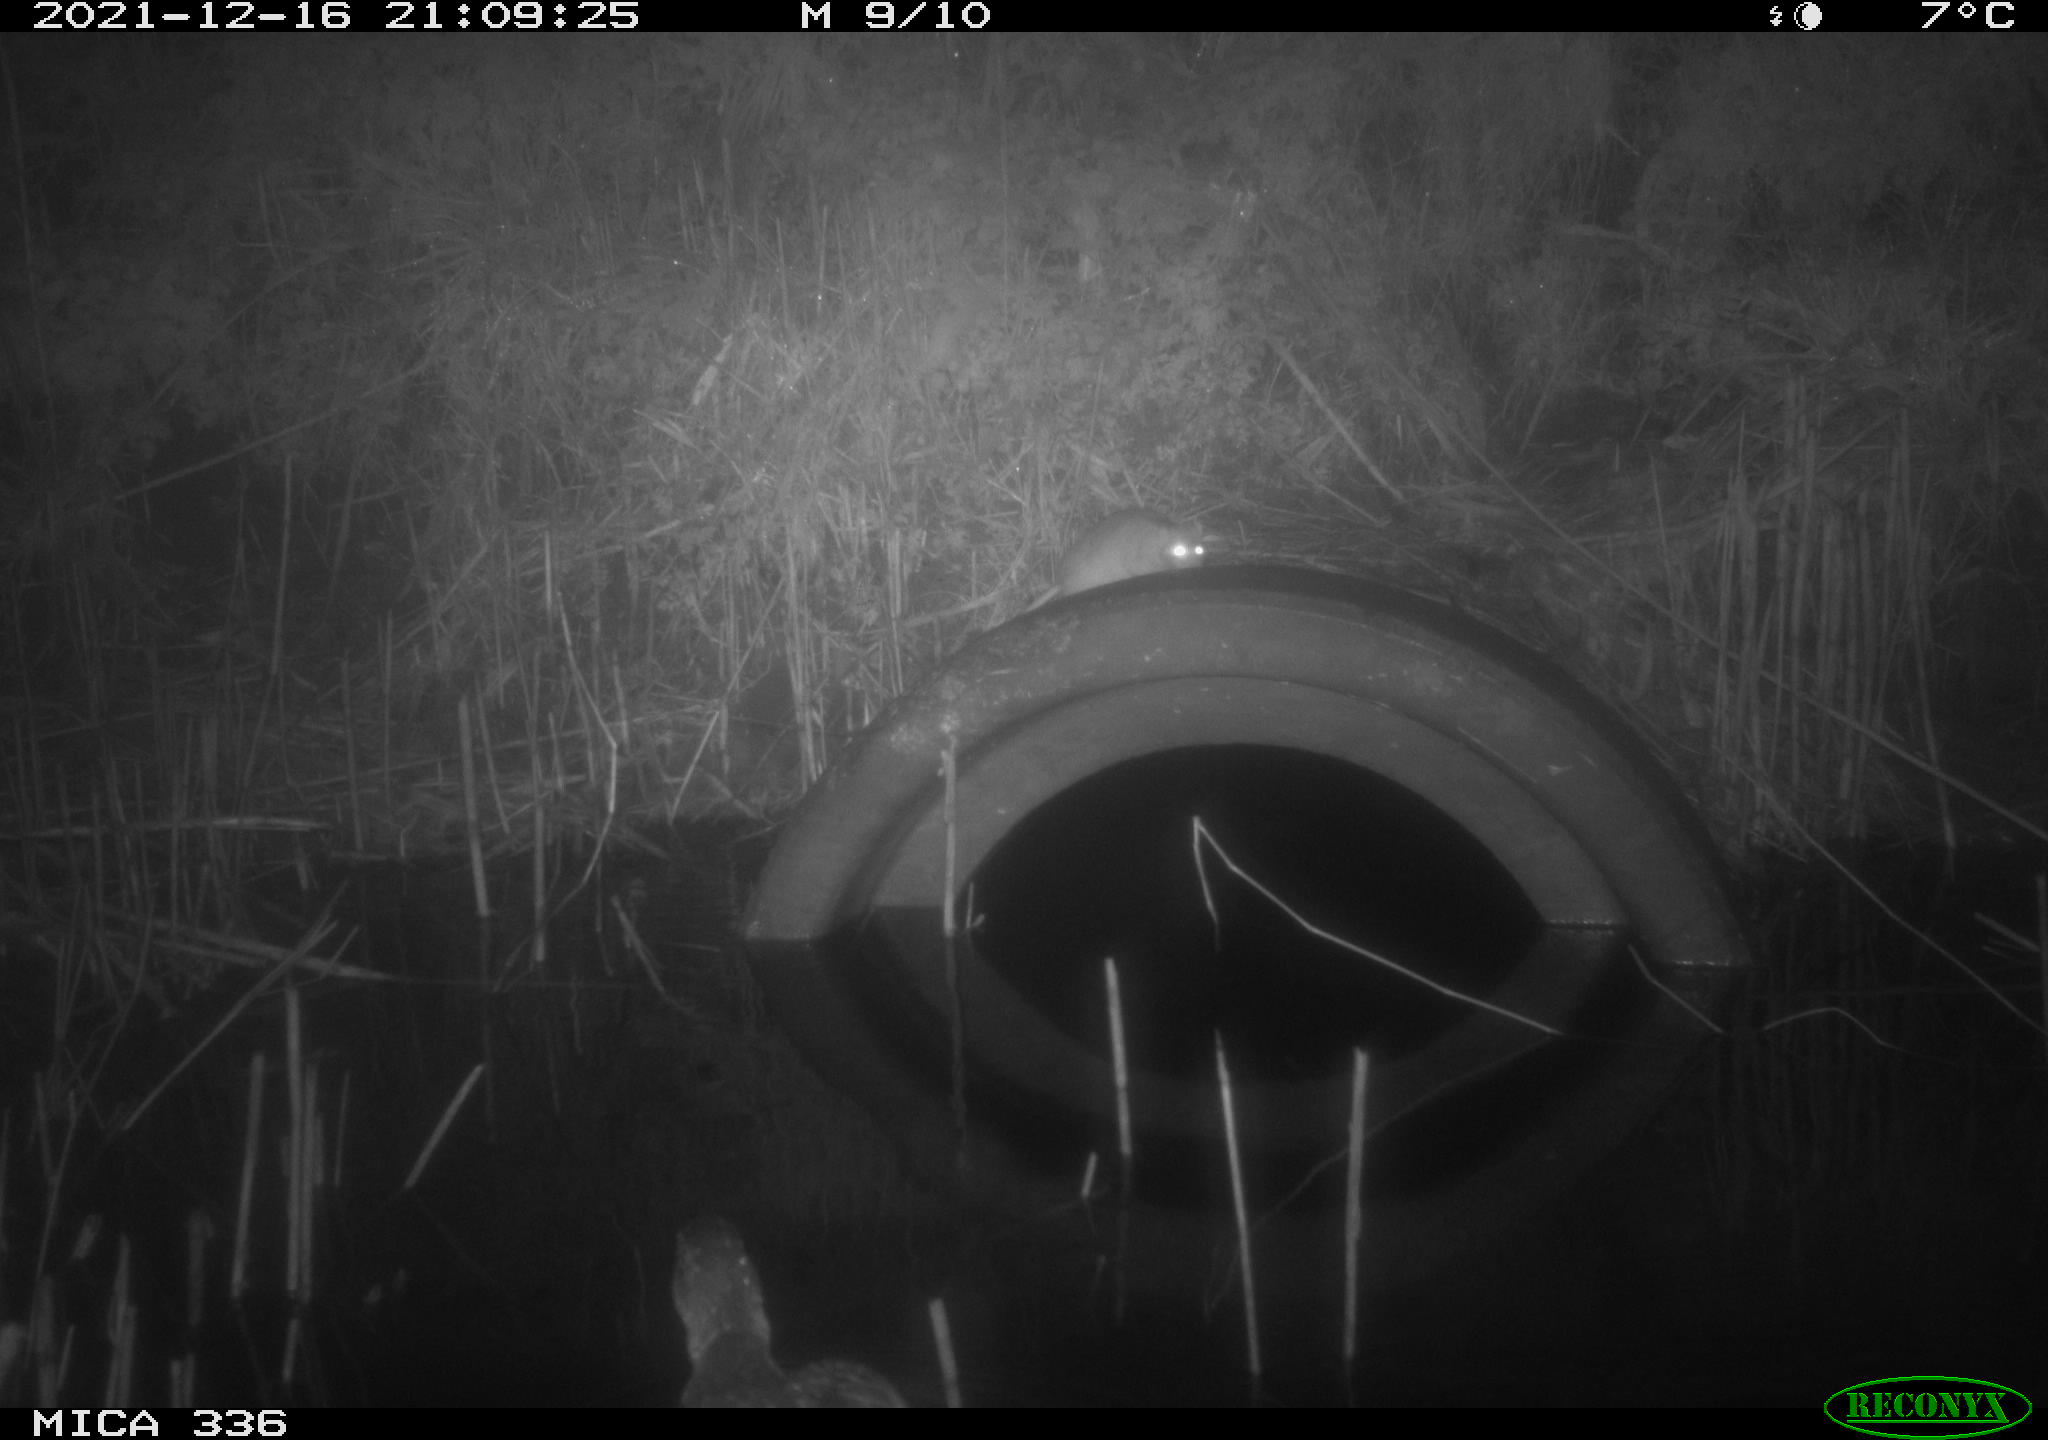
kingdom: Animalia
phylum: Chordata
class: Mammalia
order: Rodentia
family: Muridae
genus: Rattus
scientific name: Rattus norvegicus
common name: Brown rat
